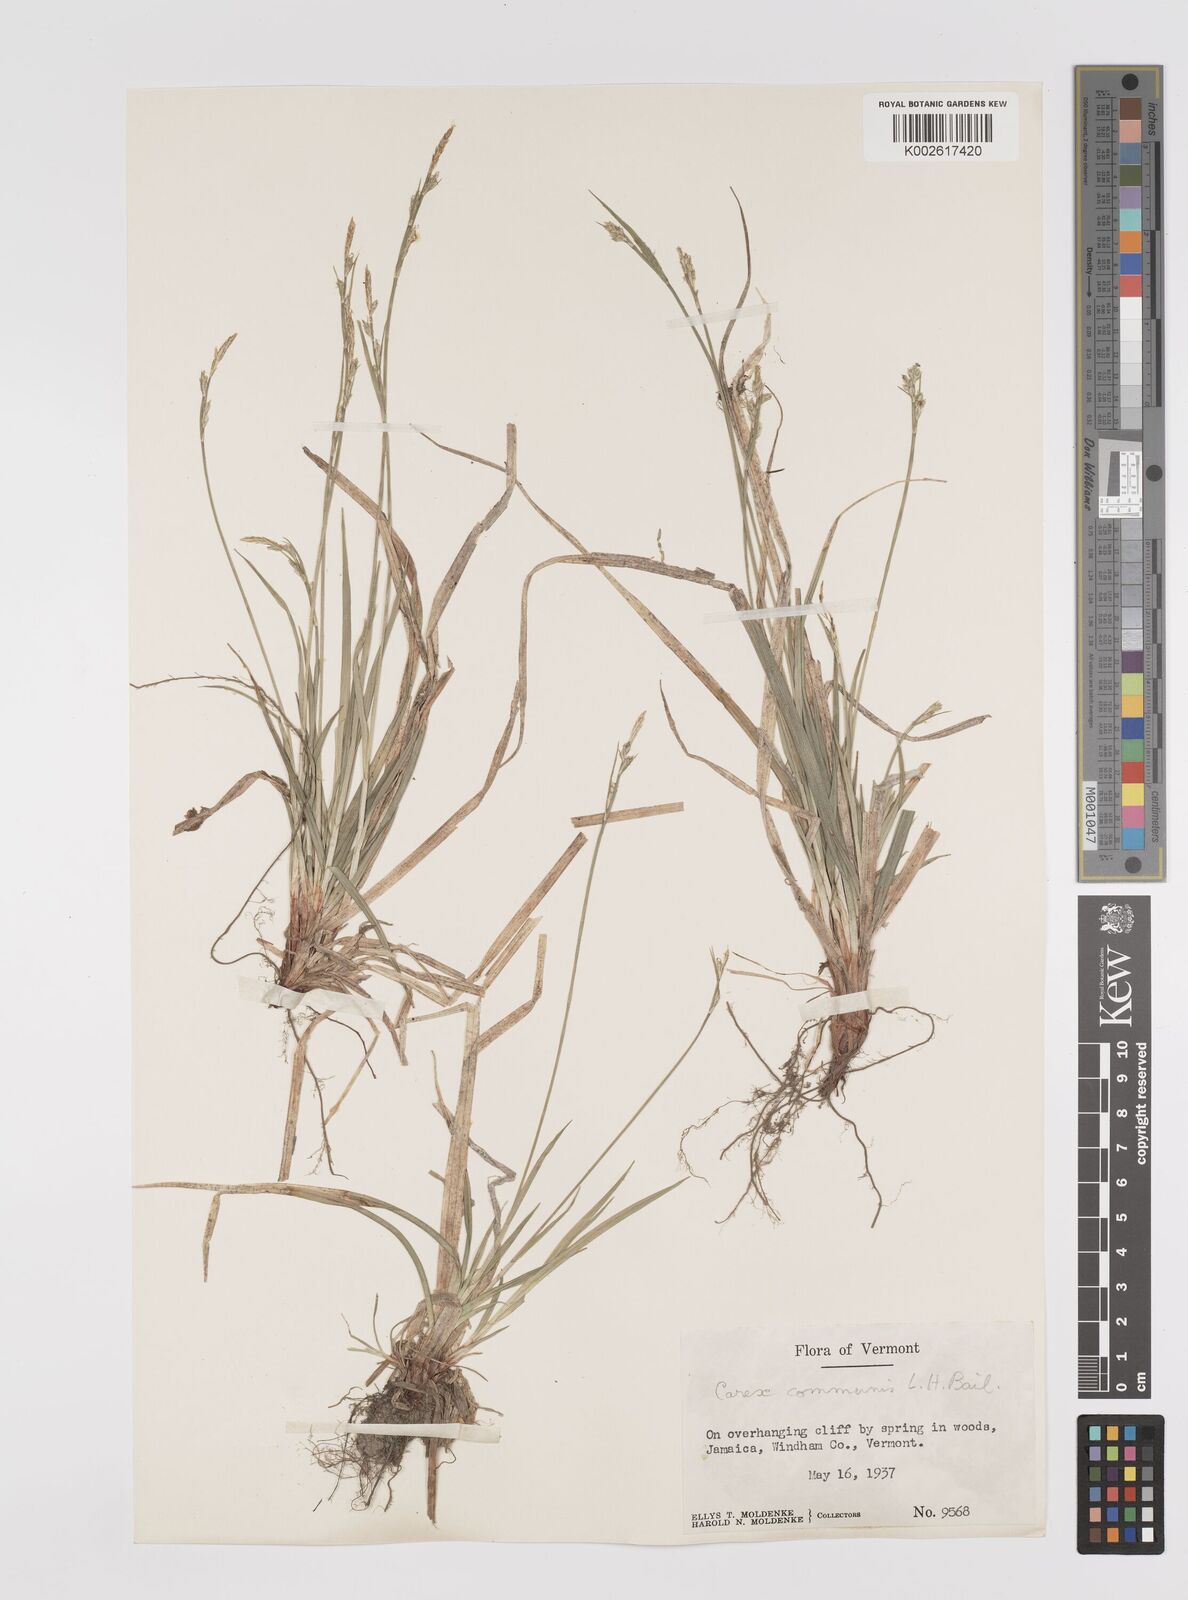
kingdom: Plantae
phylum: Tracheophyta
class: Liliopsida
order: Poales
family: Cyperaceae
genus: Carex
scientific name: Carex communis
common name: Colonial oak sedge
